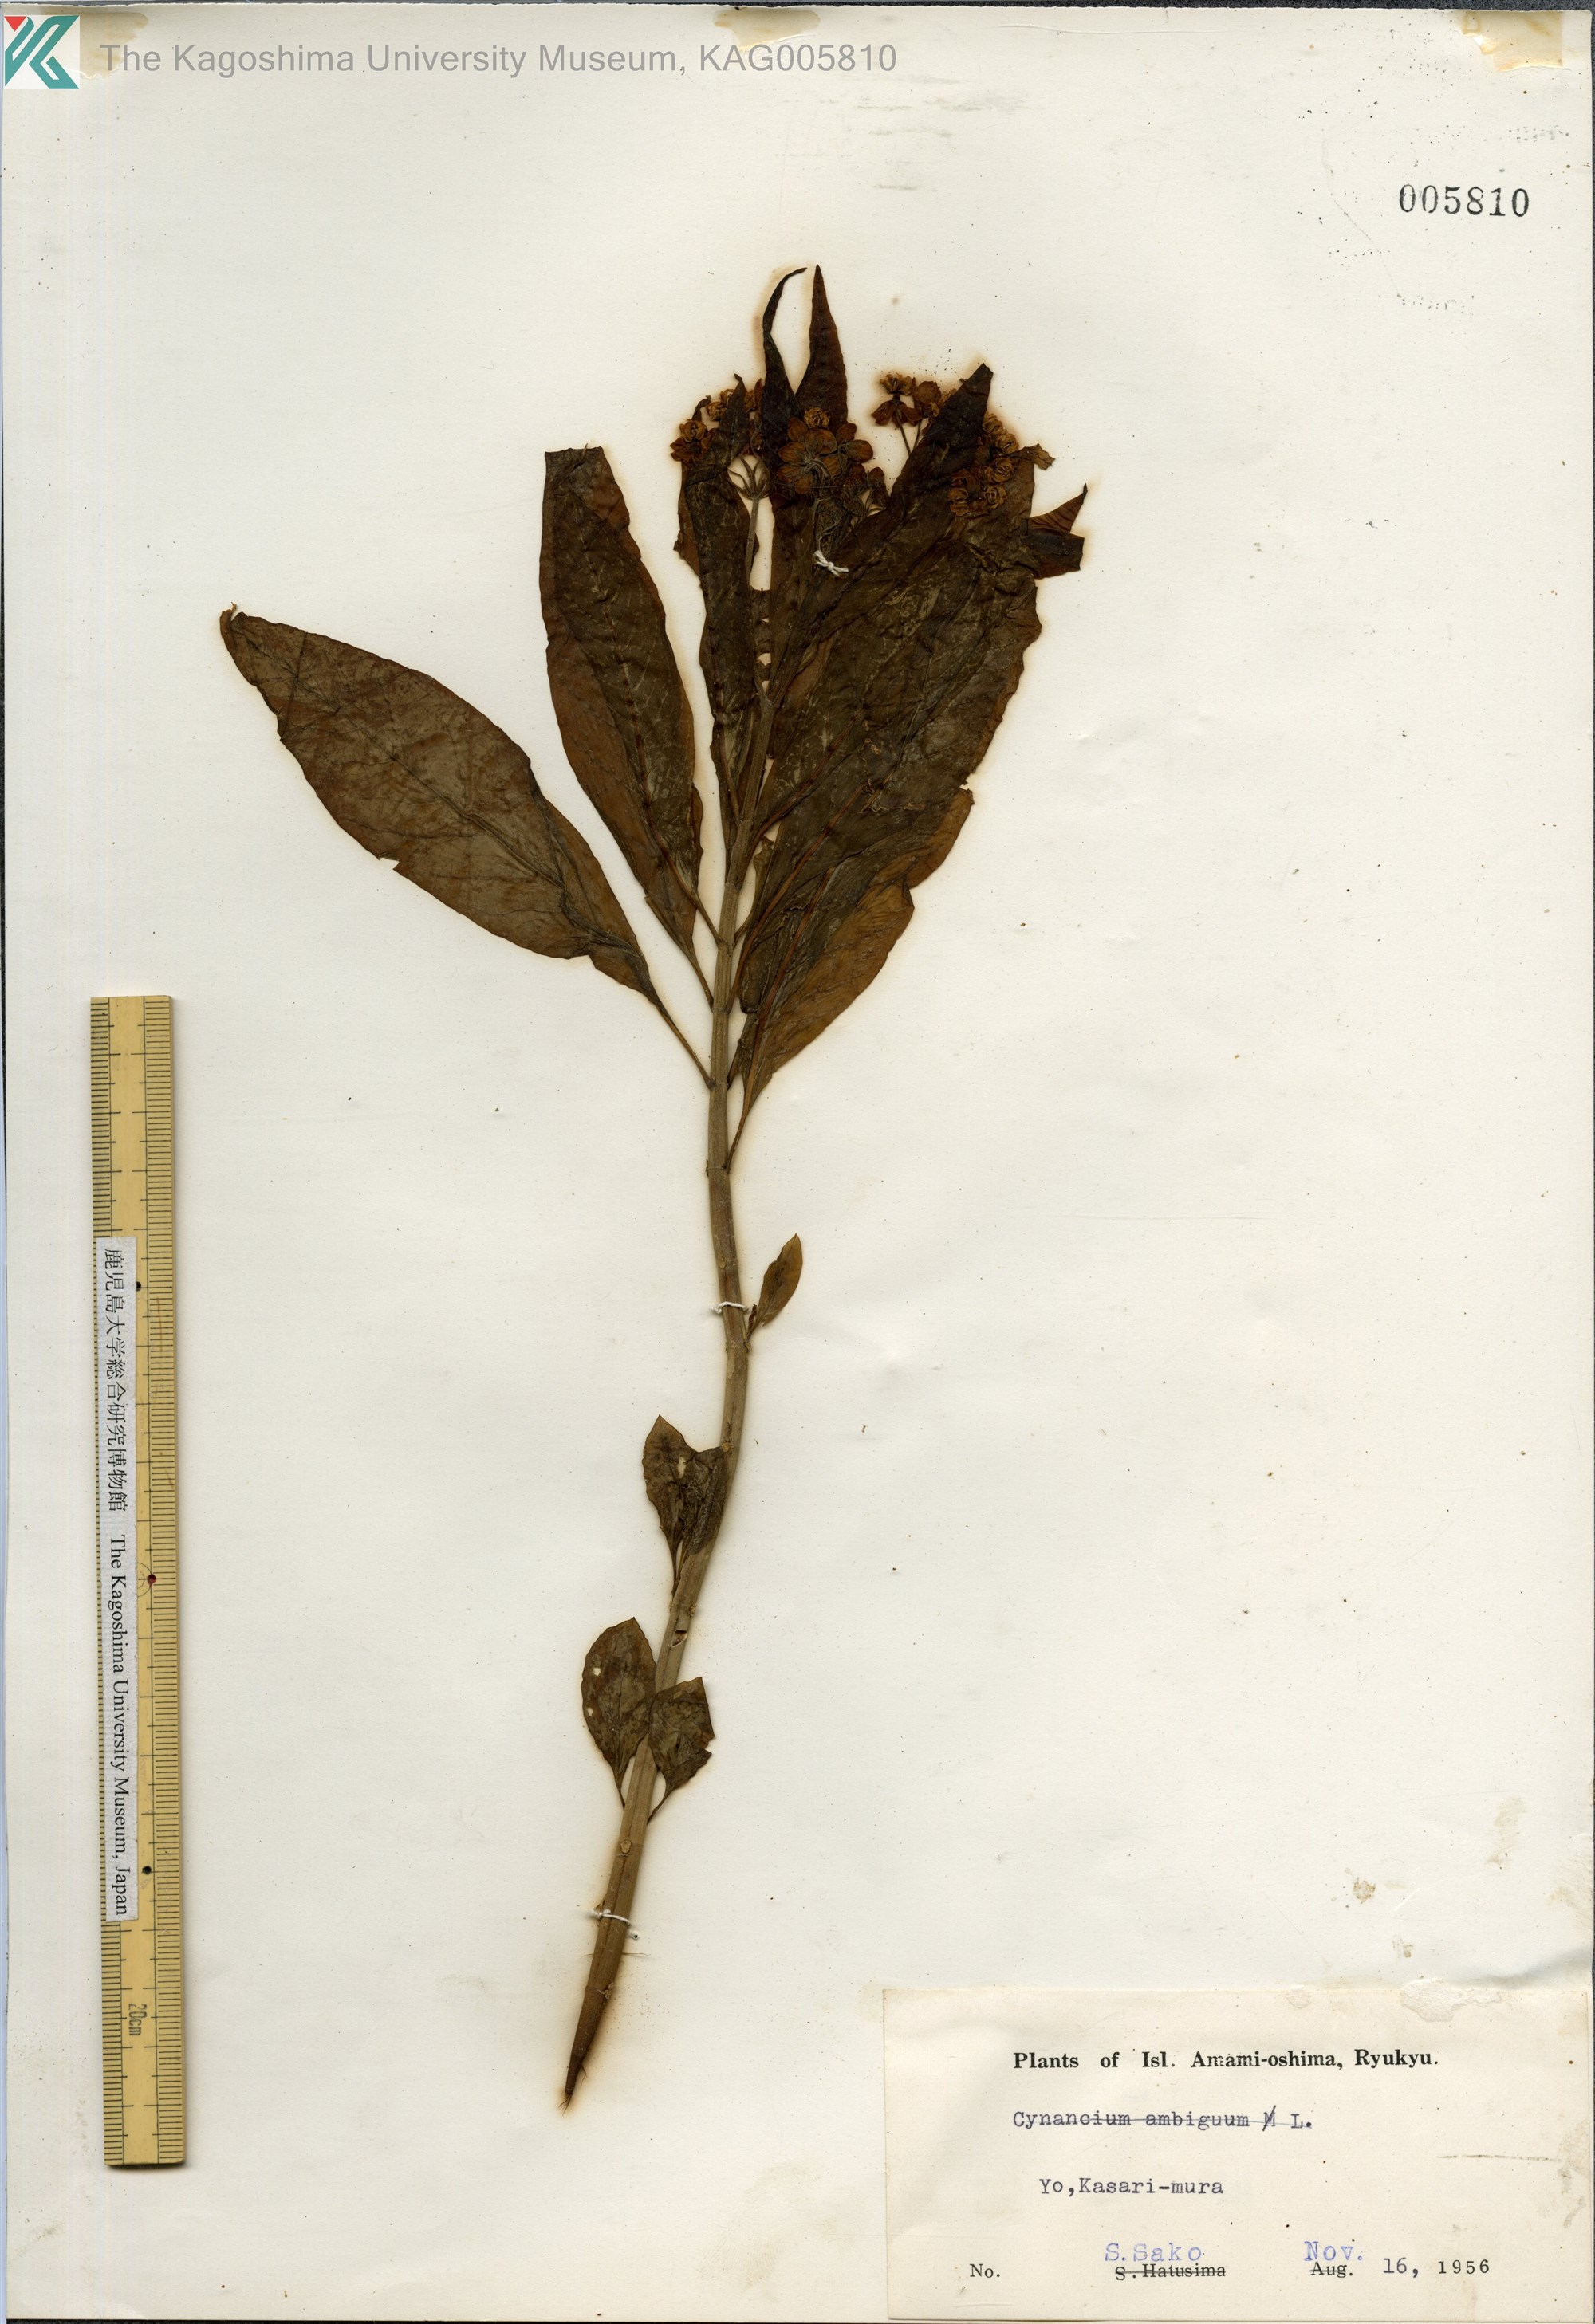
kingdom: Plantae
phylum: Tracheophyta
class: Magnoliopsida
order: Gentianales
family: Apocynaceae
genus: Asclepias
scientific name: Asclepias
